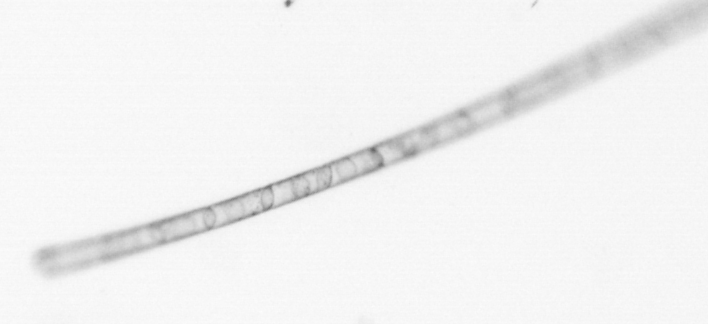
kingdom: Chromista
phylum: Ochrophyta
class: Bacillariophyceae
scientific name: Bacillariophyceae
